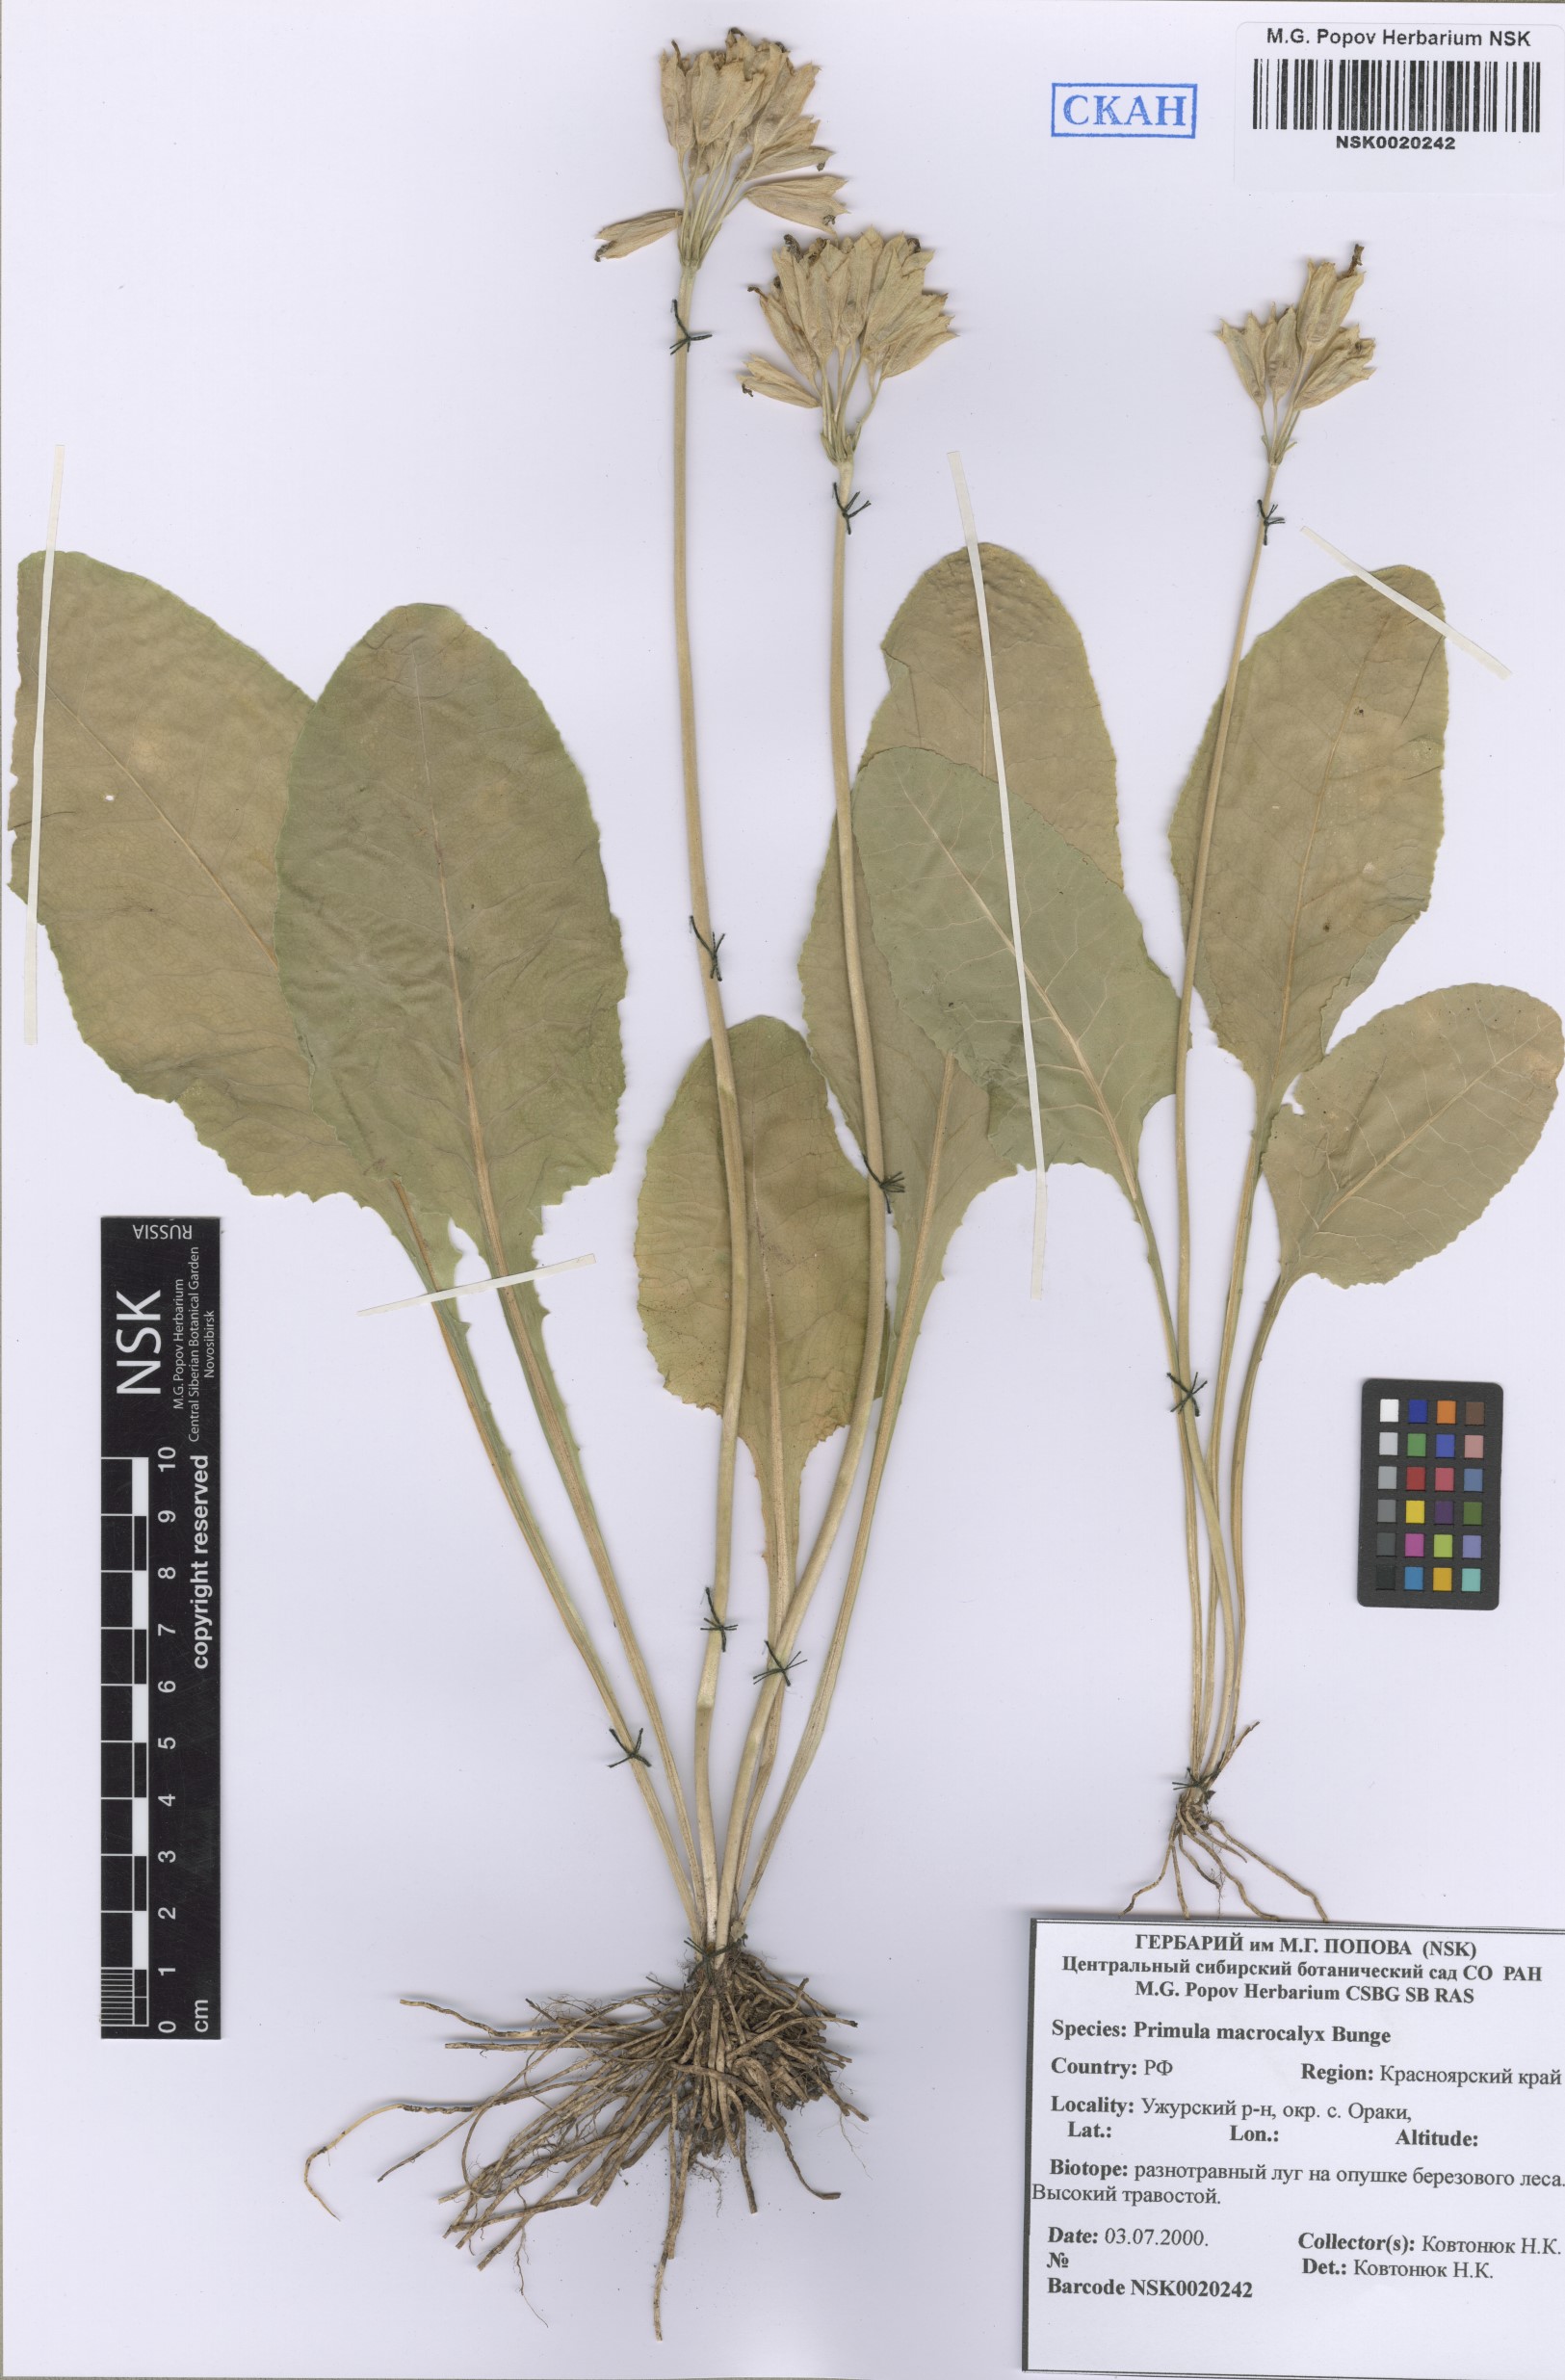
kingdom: Plantae
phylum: Tracheophyta
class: Magnoliopsida
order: Ericales
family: Primulaceae
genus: Primula
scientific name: Primula veris
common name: Cowslip
